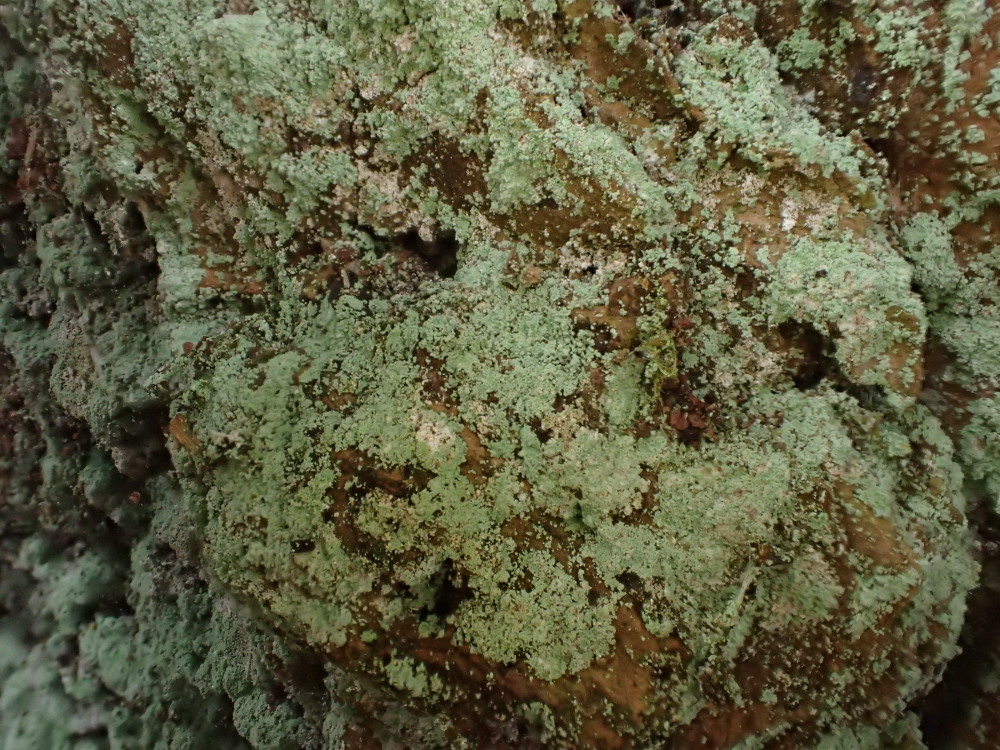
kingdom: Fungi
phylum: Ascomycota
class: Lecanoromycetes
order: Lecanorales
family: Stereocaulaceae
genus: Lepraria
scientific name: Lepraria incana
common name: almindelig støvlav
